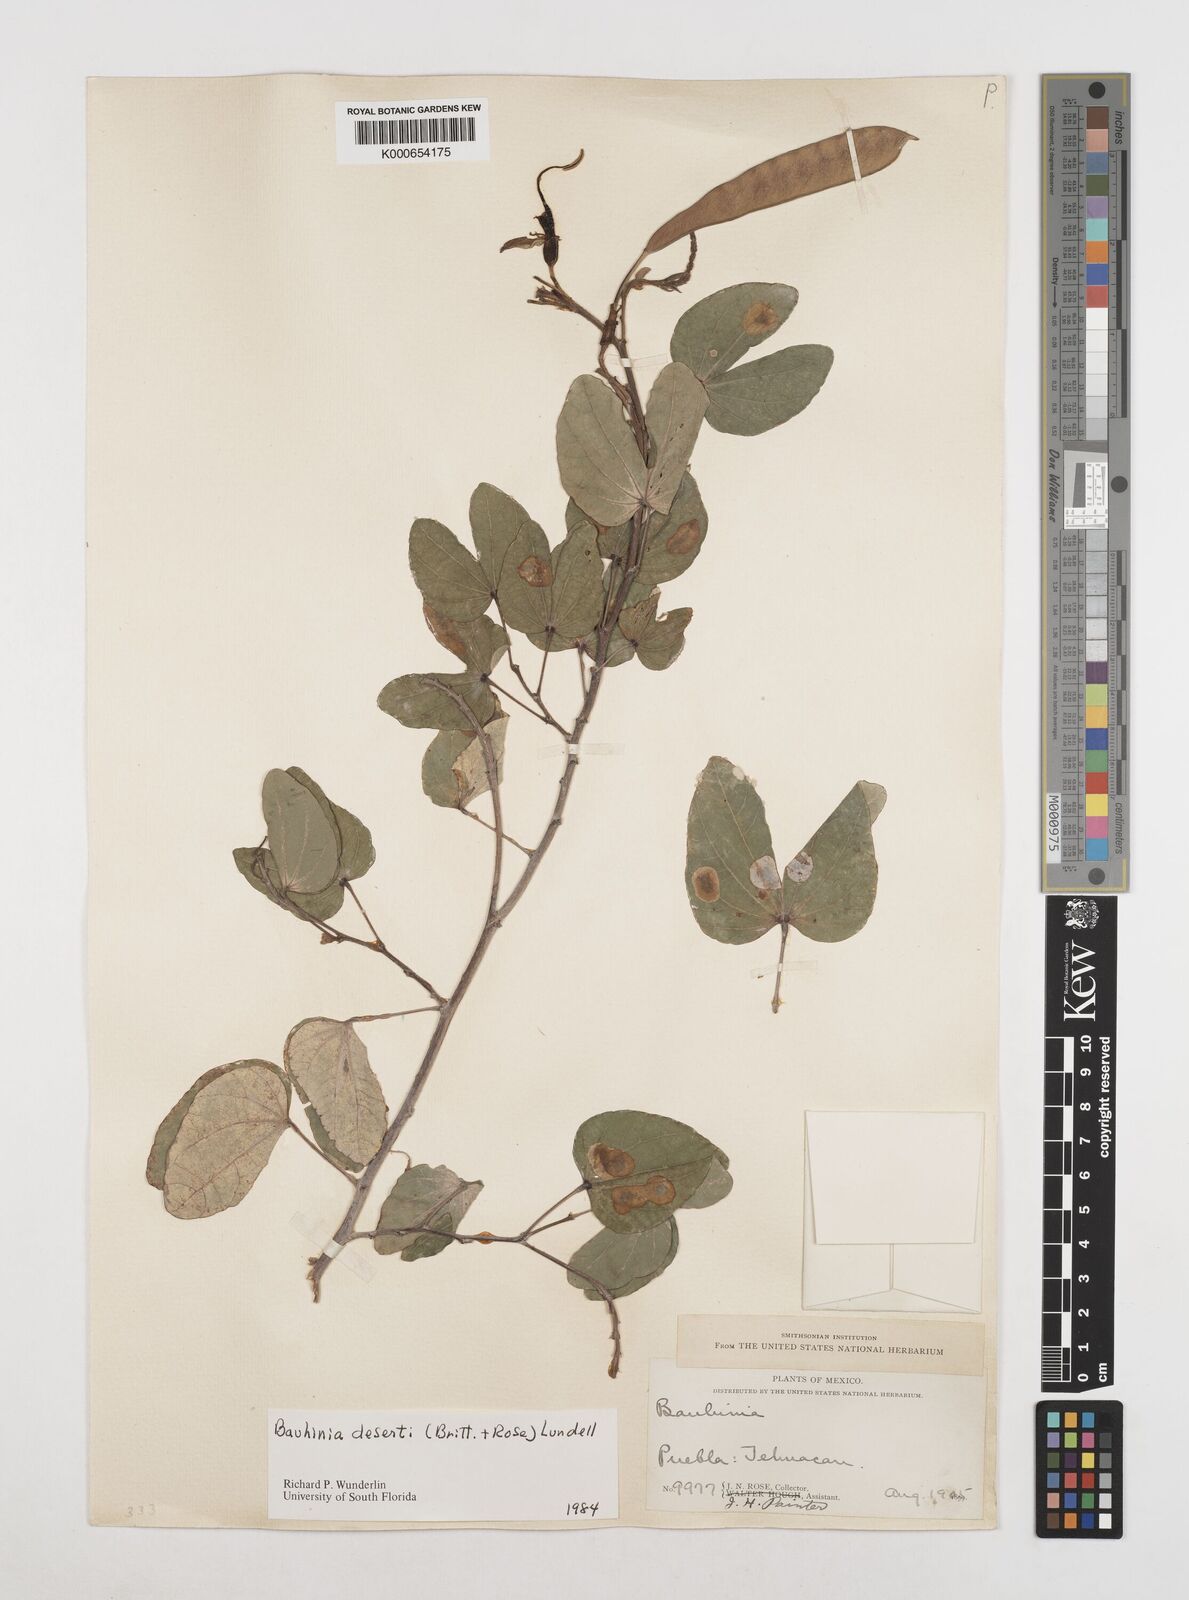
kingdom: Plantae
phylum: Tracheophyta
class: Magnoliopsida
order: Fabales
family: Fabaceae
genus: Bauhinia
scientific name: Bauhinia deserti
